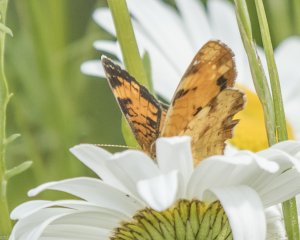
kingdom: Animalia
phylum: Arthropoda
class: Insecta
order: Lepidoptera
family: Nymphalidae
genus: Phyciodes
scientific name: Phyciodes tharos
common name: Northern Crescent
